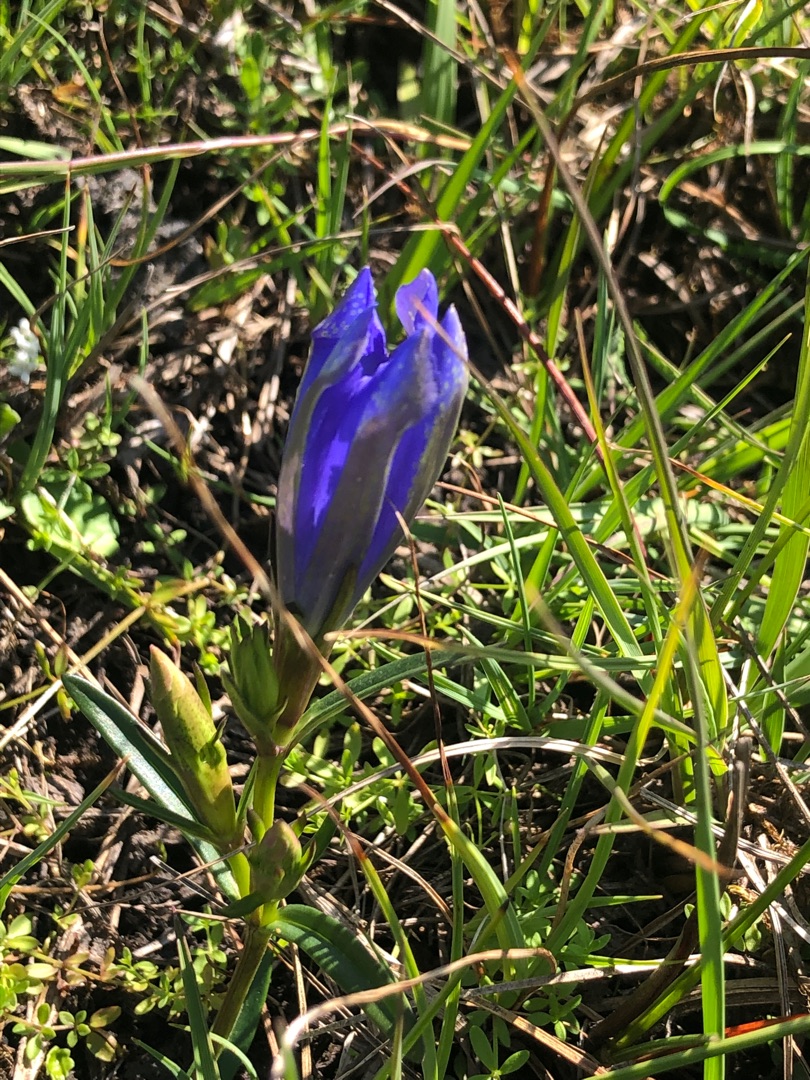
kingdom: Plantae
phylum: Tracheophyta
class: Magnoliopsida
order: Gentianales
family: Gentianaceae
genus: Gentiana
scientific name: Gentiana pneumonanthe
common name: Klokke-ensian
